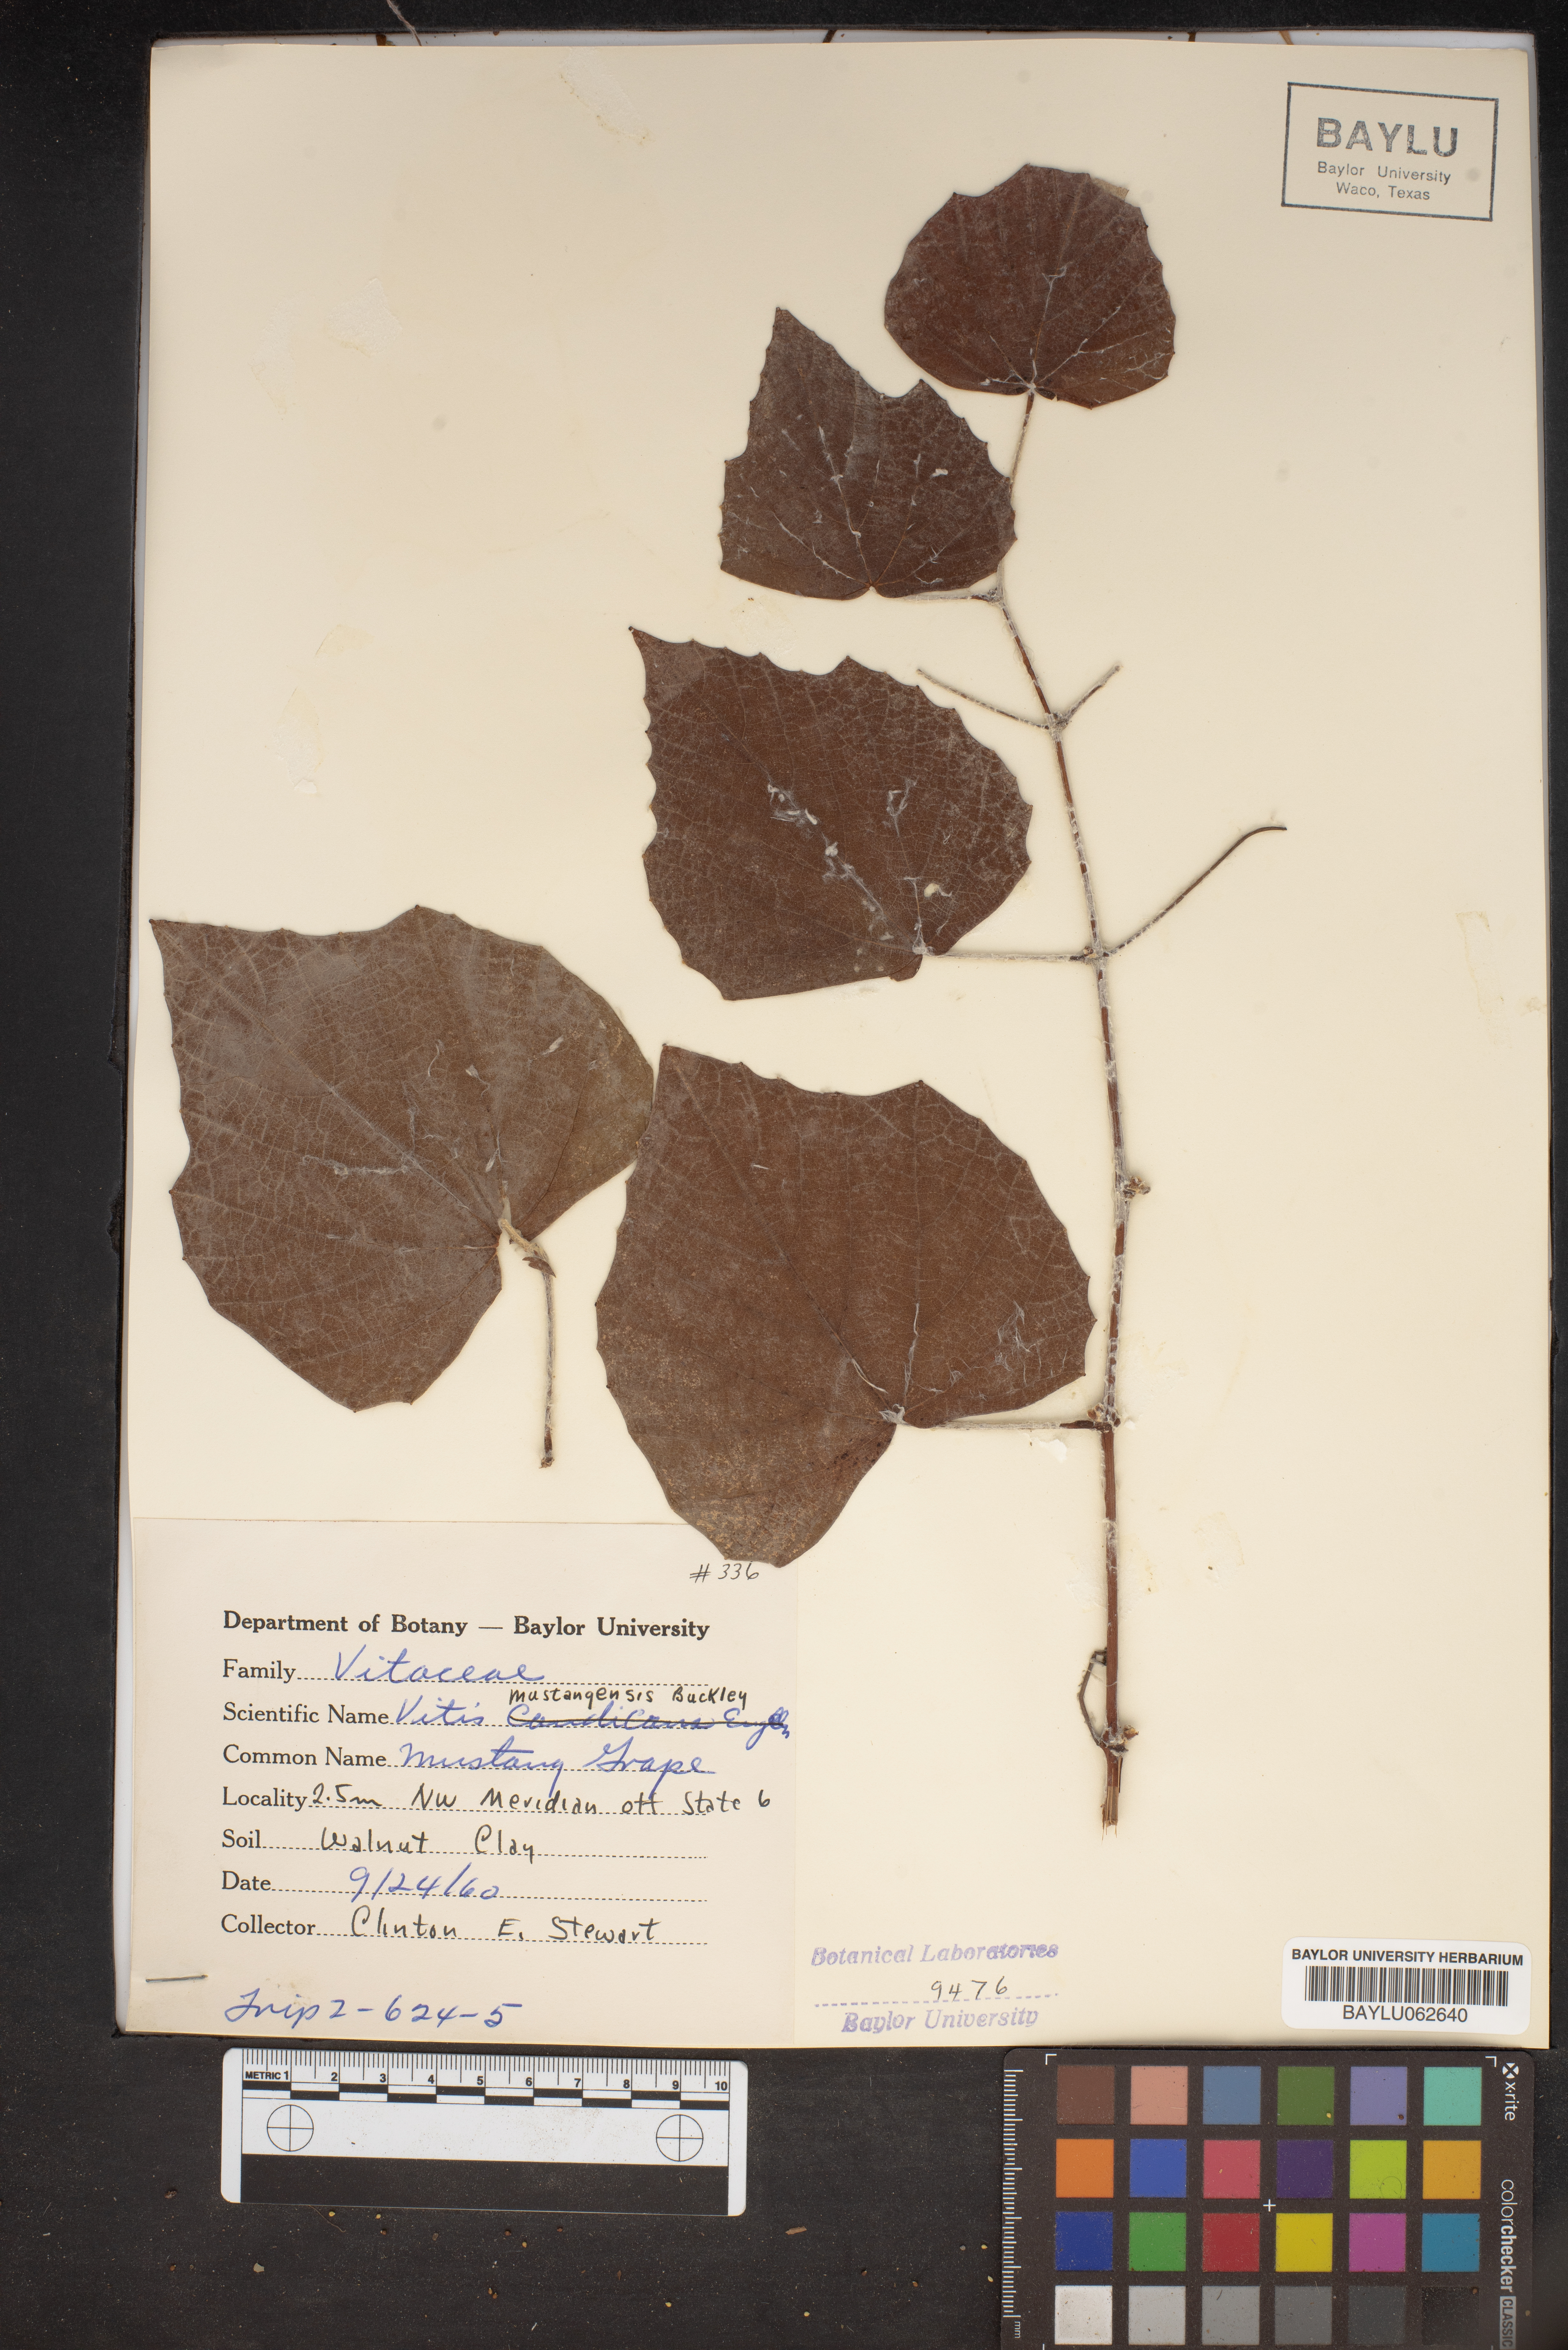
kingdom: Plantae
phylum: Tracheophyta
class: Magnoliopsida
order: Vitales
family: Vitaceae
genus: Vitis
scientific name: Vitis mustangensis
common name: Mustang grape
